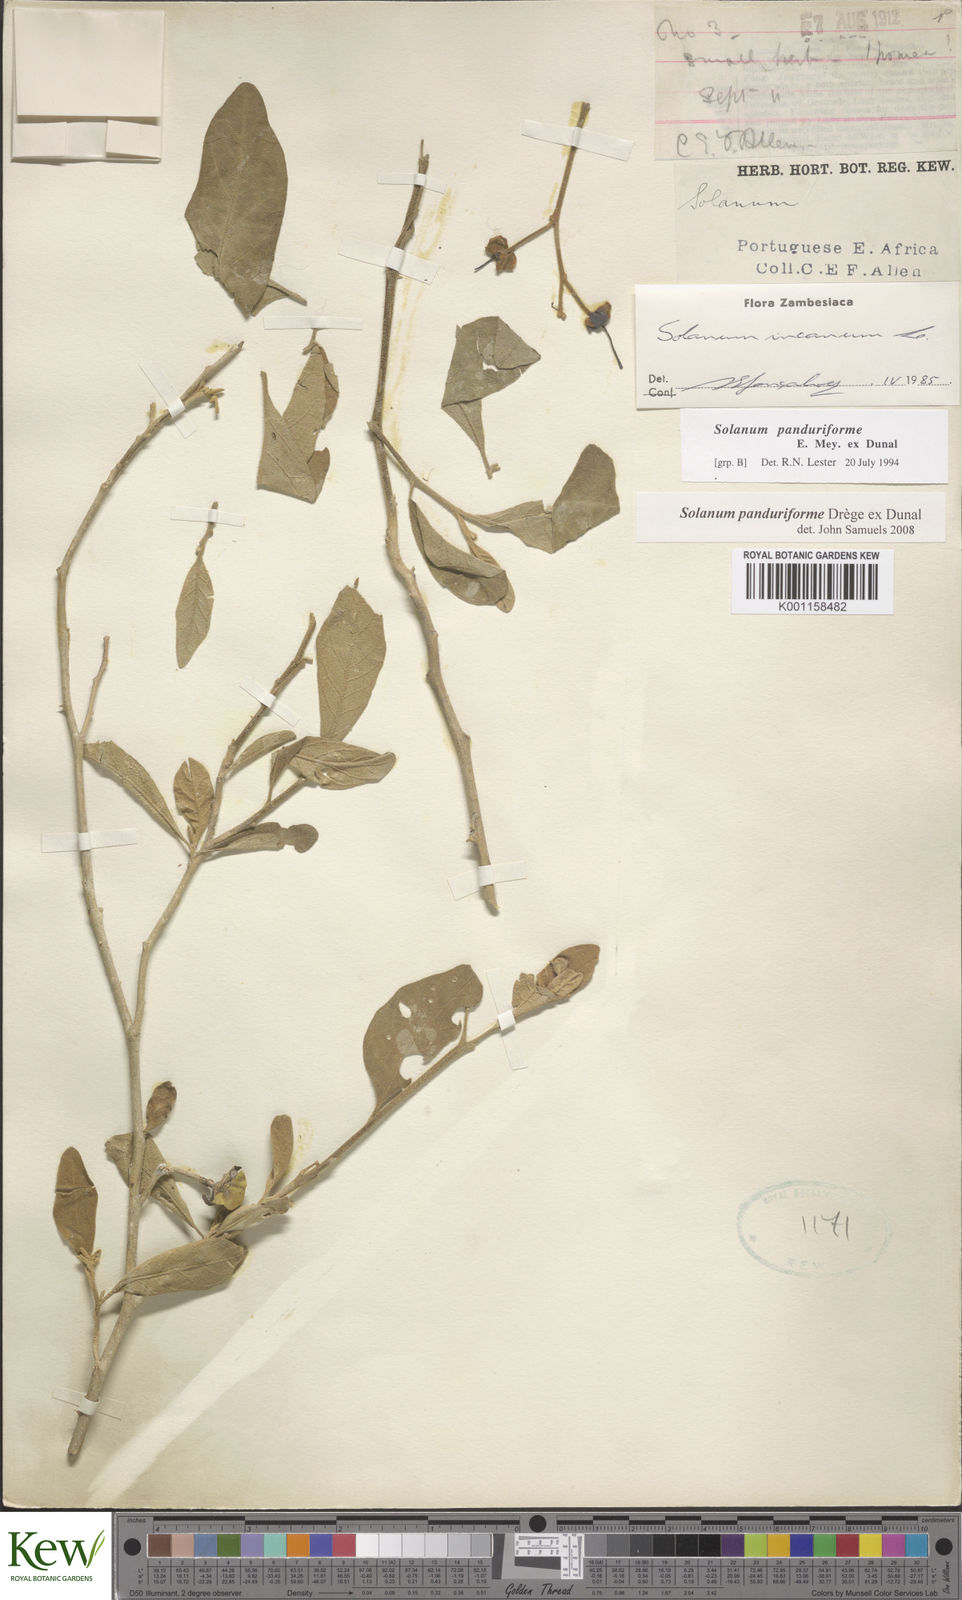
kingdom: Plantae
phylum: Tracheophyta
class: Magnoliopsida
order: Solanales
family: Solanaceae
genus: Solanum
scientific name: Solanum campylacanthum
